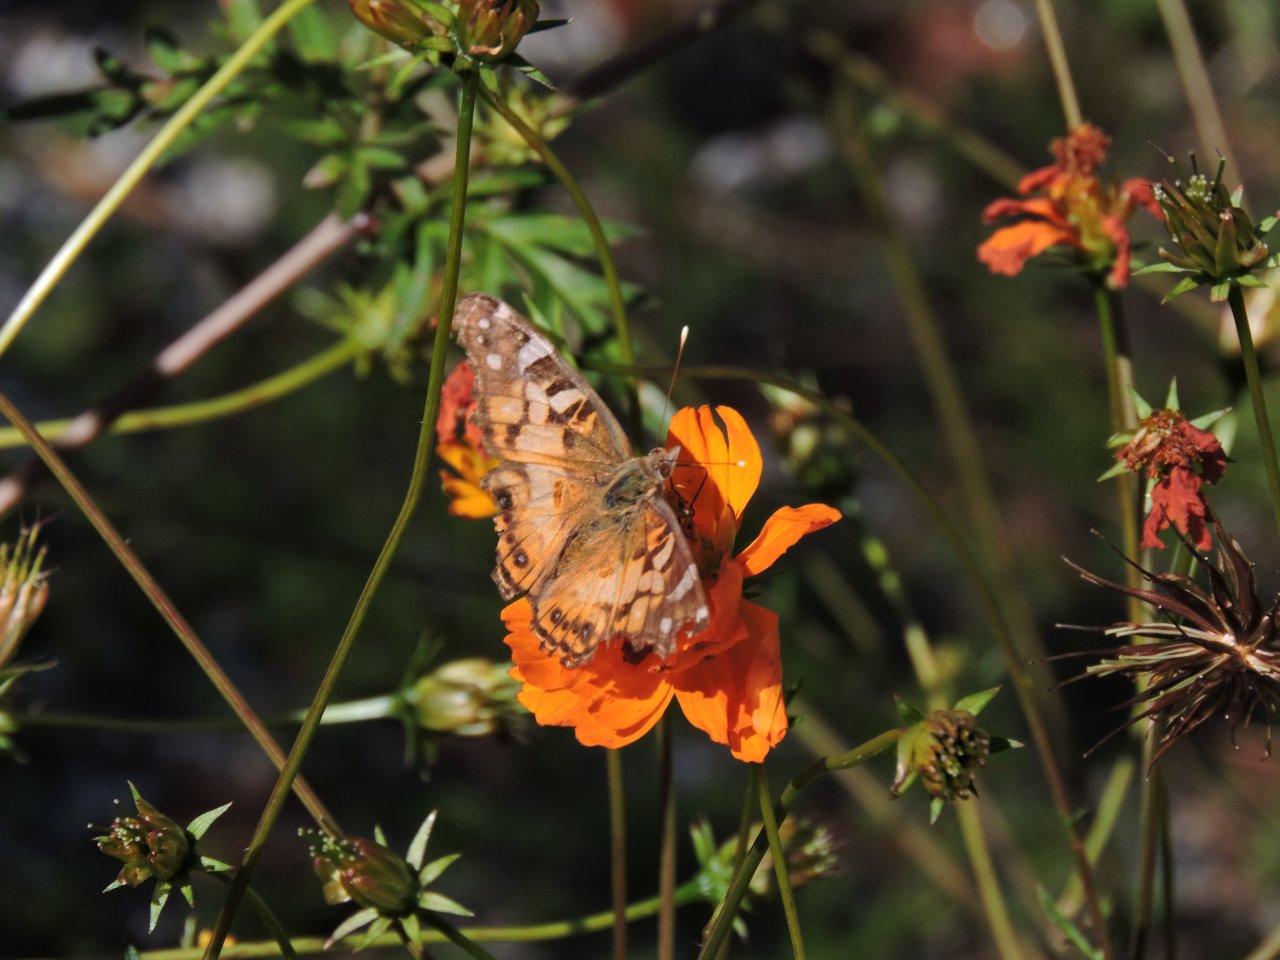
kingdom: Animalia
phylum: Arthropoda
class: Insecta
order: Lepidoptera
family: Nymphalidae
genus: Vanessa
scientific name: Vanessa virginiensis
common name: American Lady
